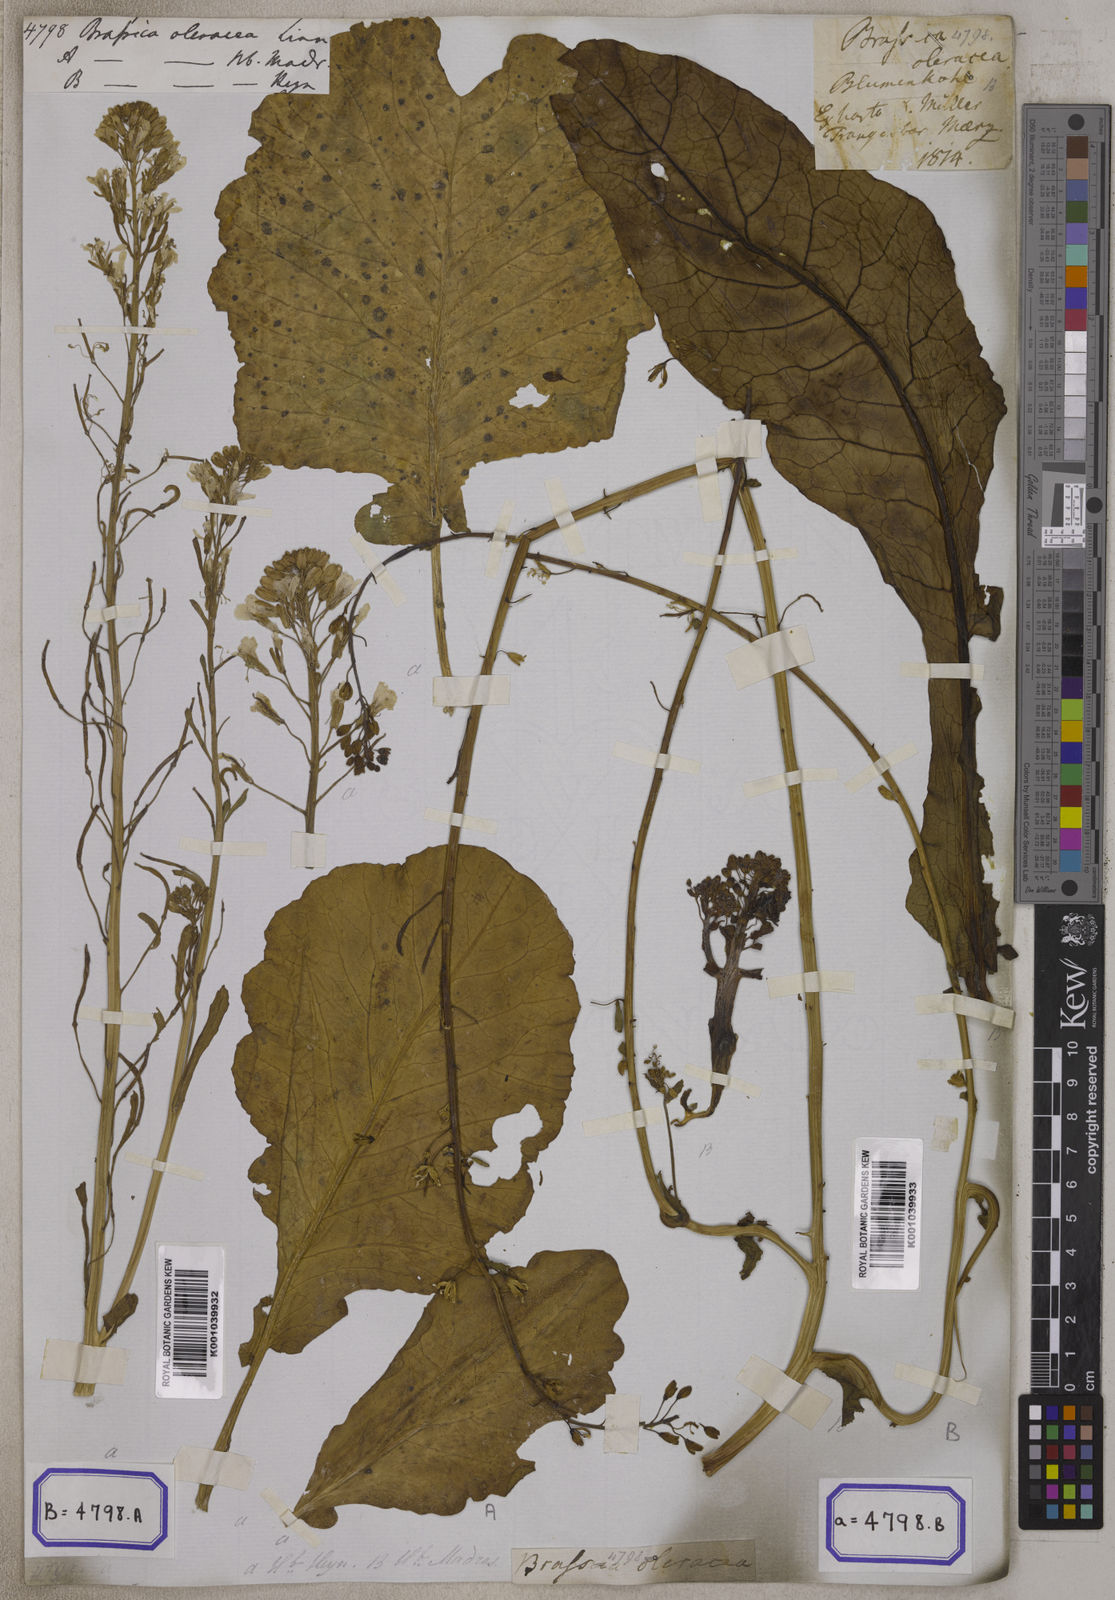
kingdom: Plantae
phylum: Tracheophyta
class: Magnoliopsida
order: Brassicales
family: Brassicaceae
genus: Brassica
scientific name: Brassica oleracea
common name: Cabbage
